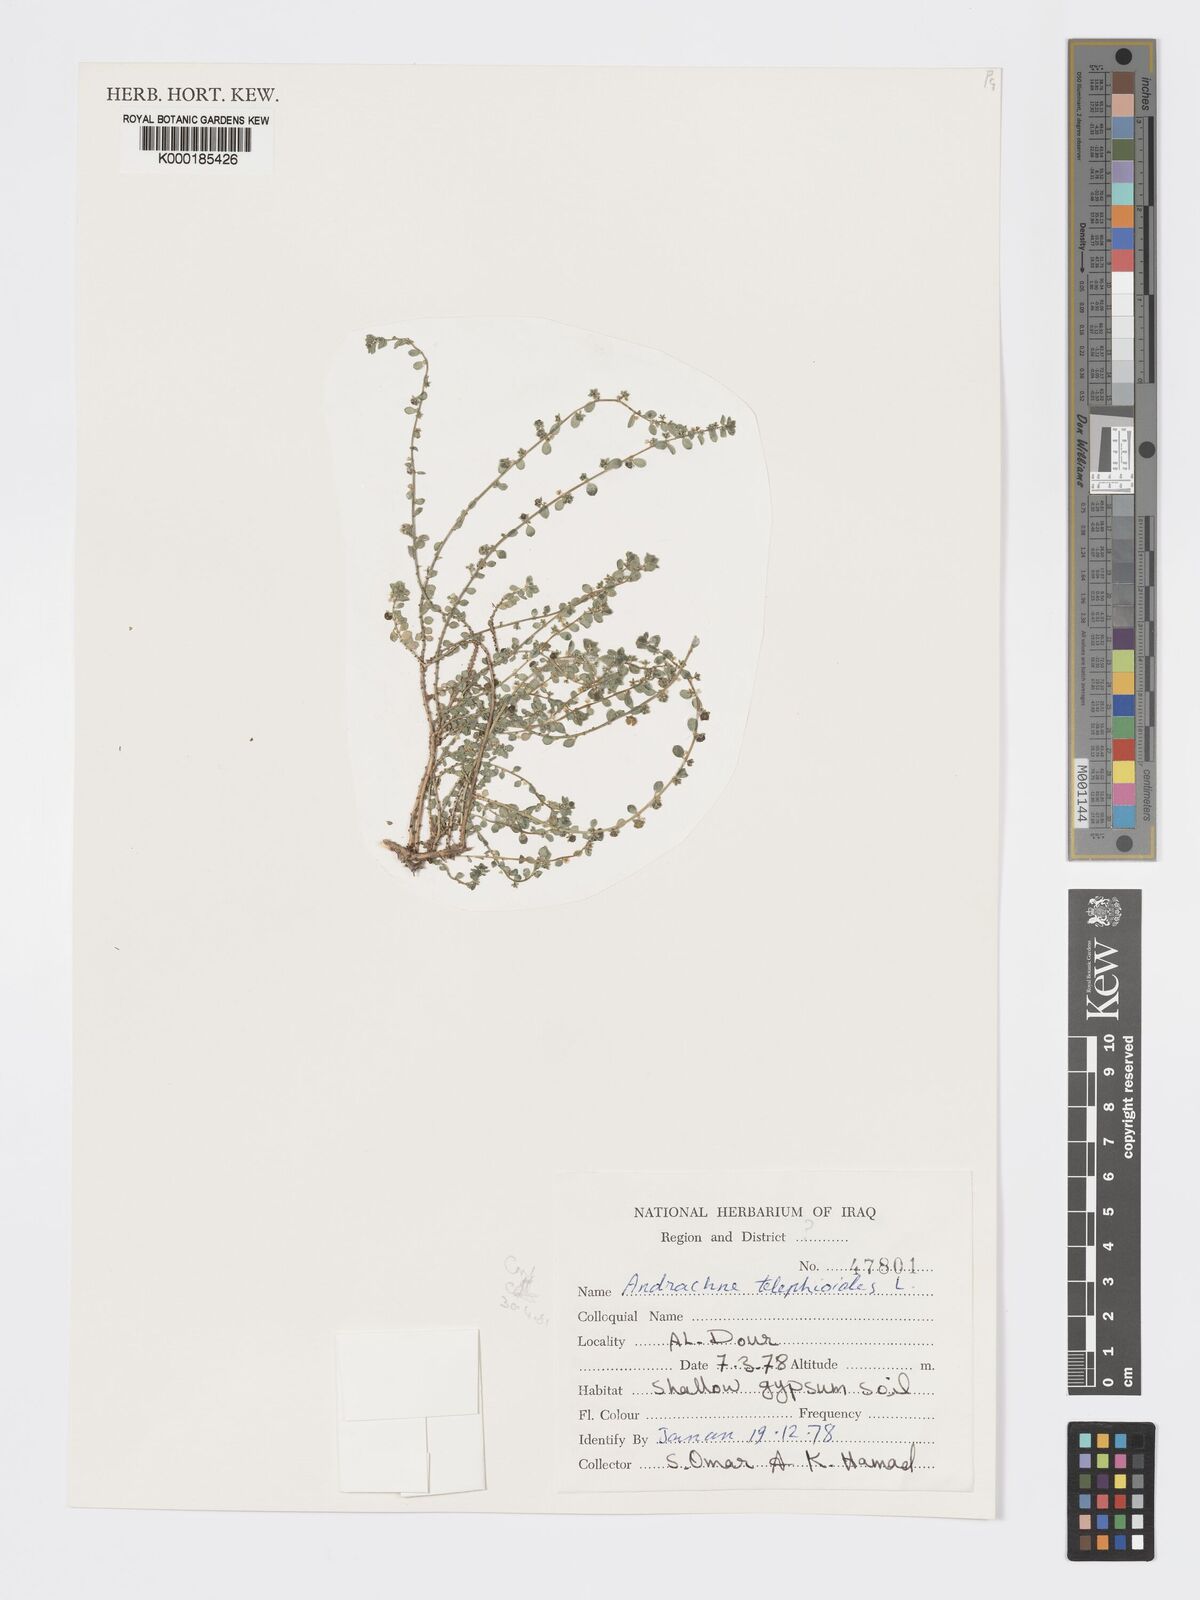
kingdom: Plantae
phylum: Tracheophyta
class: Magnoliopsida
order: Malpighiales
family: Phyllanthaceae
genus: Andrachne
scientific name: Andrachne telephioides
